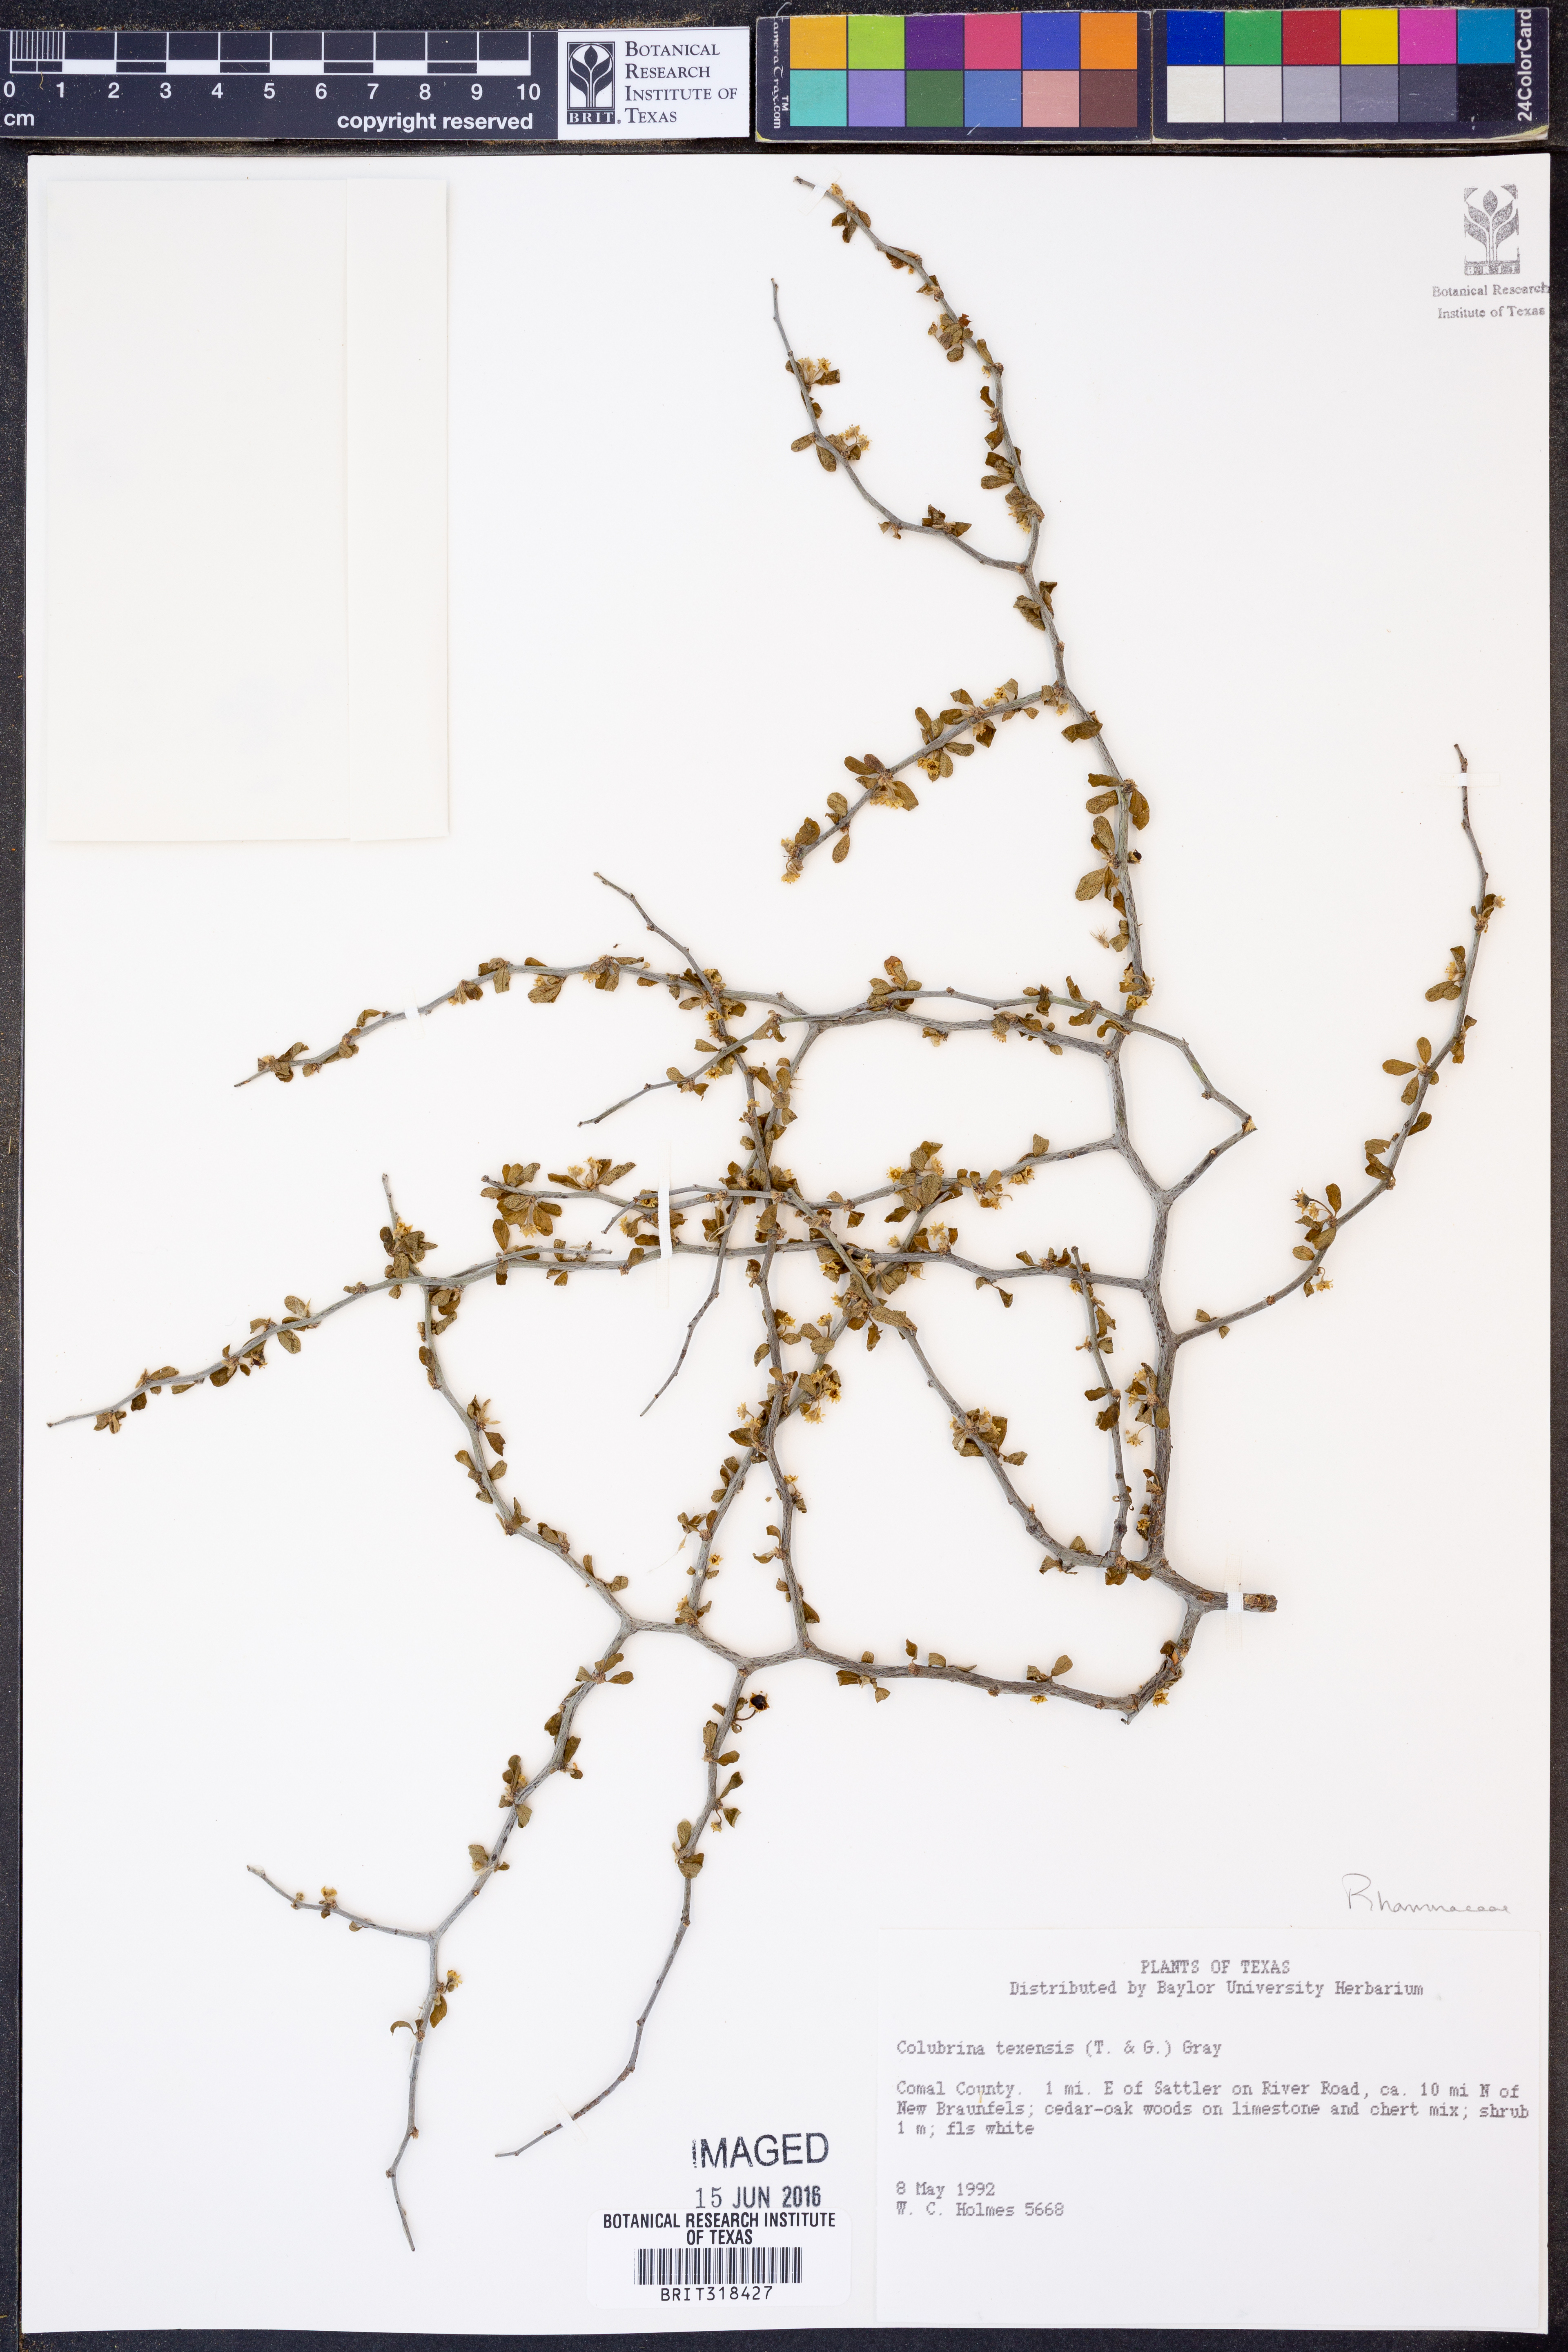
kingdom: Plantae
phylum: Tracheophyta
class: Magnoliopsida
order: Rosales
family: Rhamnaceae
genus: Colubrina
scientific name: Colubrina texensis
